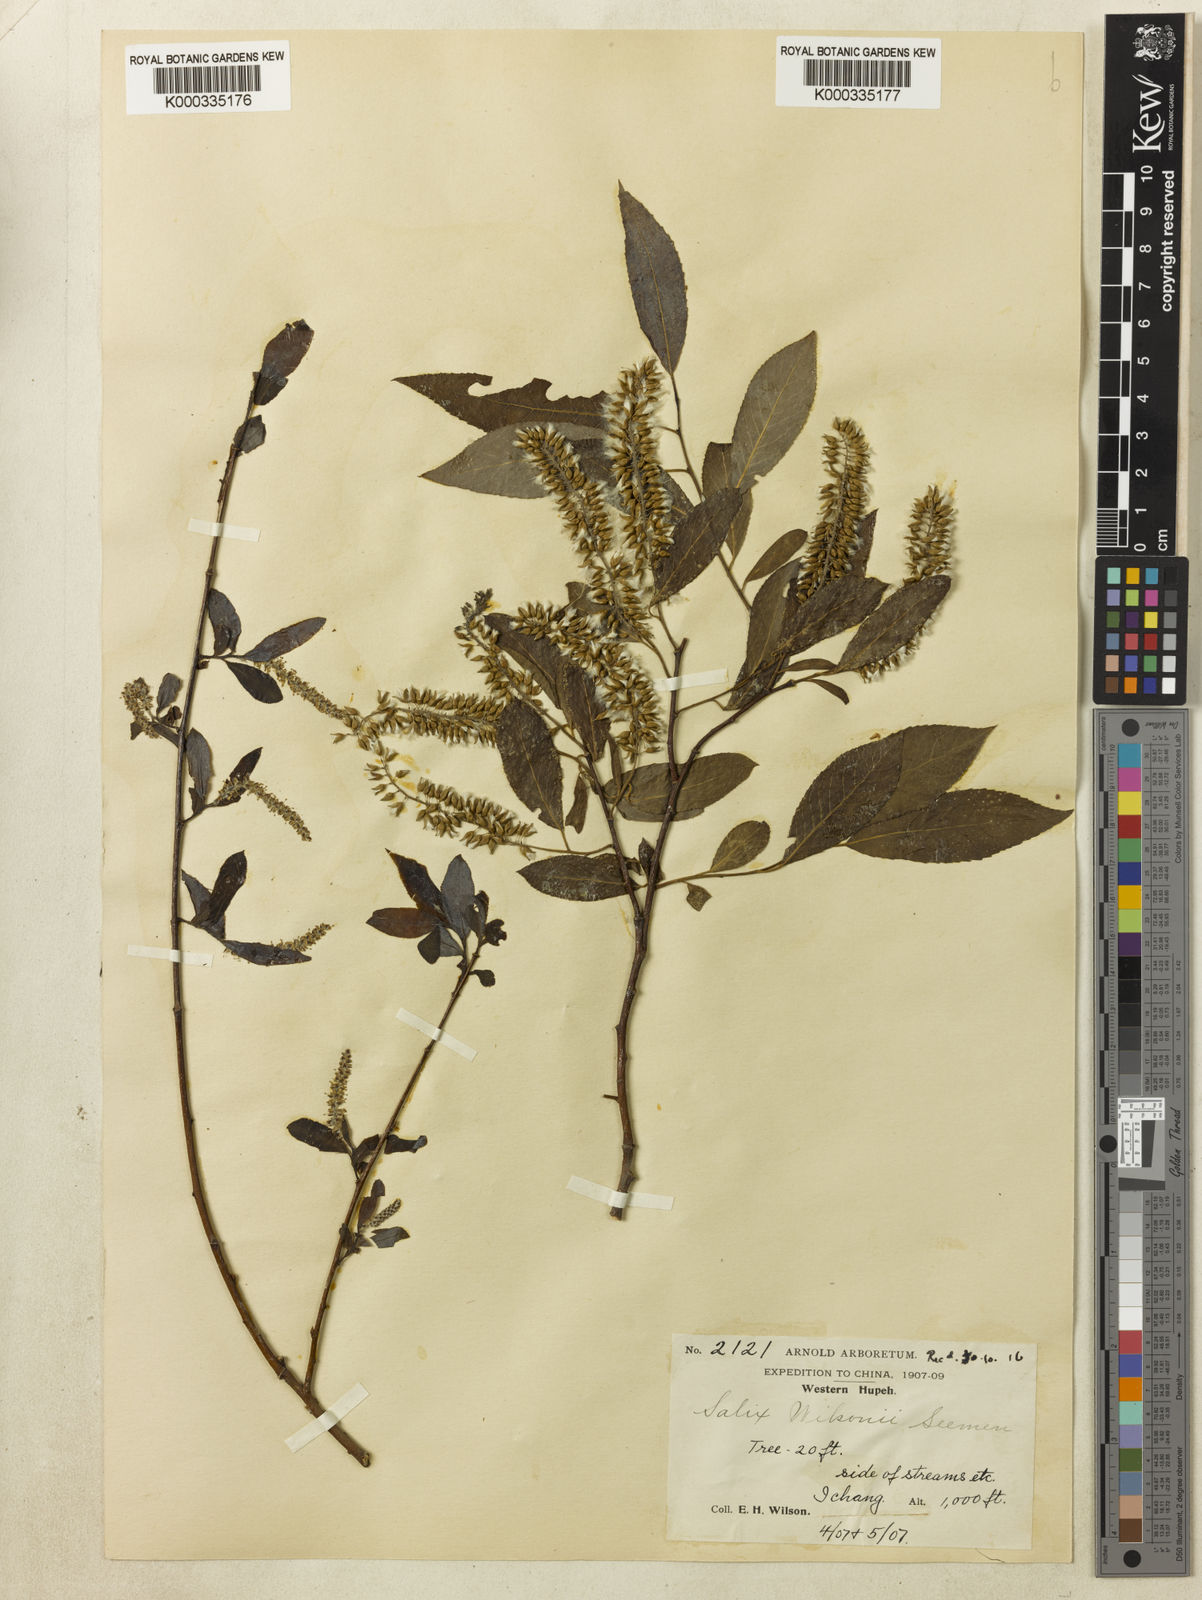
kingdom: Plantae
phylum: Tracheophyta
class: Magnoliopsida
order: Malpighiales
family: Salicaceae
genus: Salix
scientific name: Salix wilsonii
